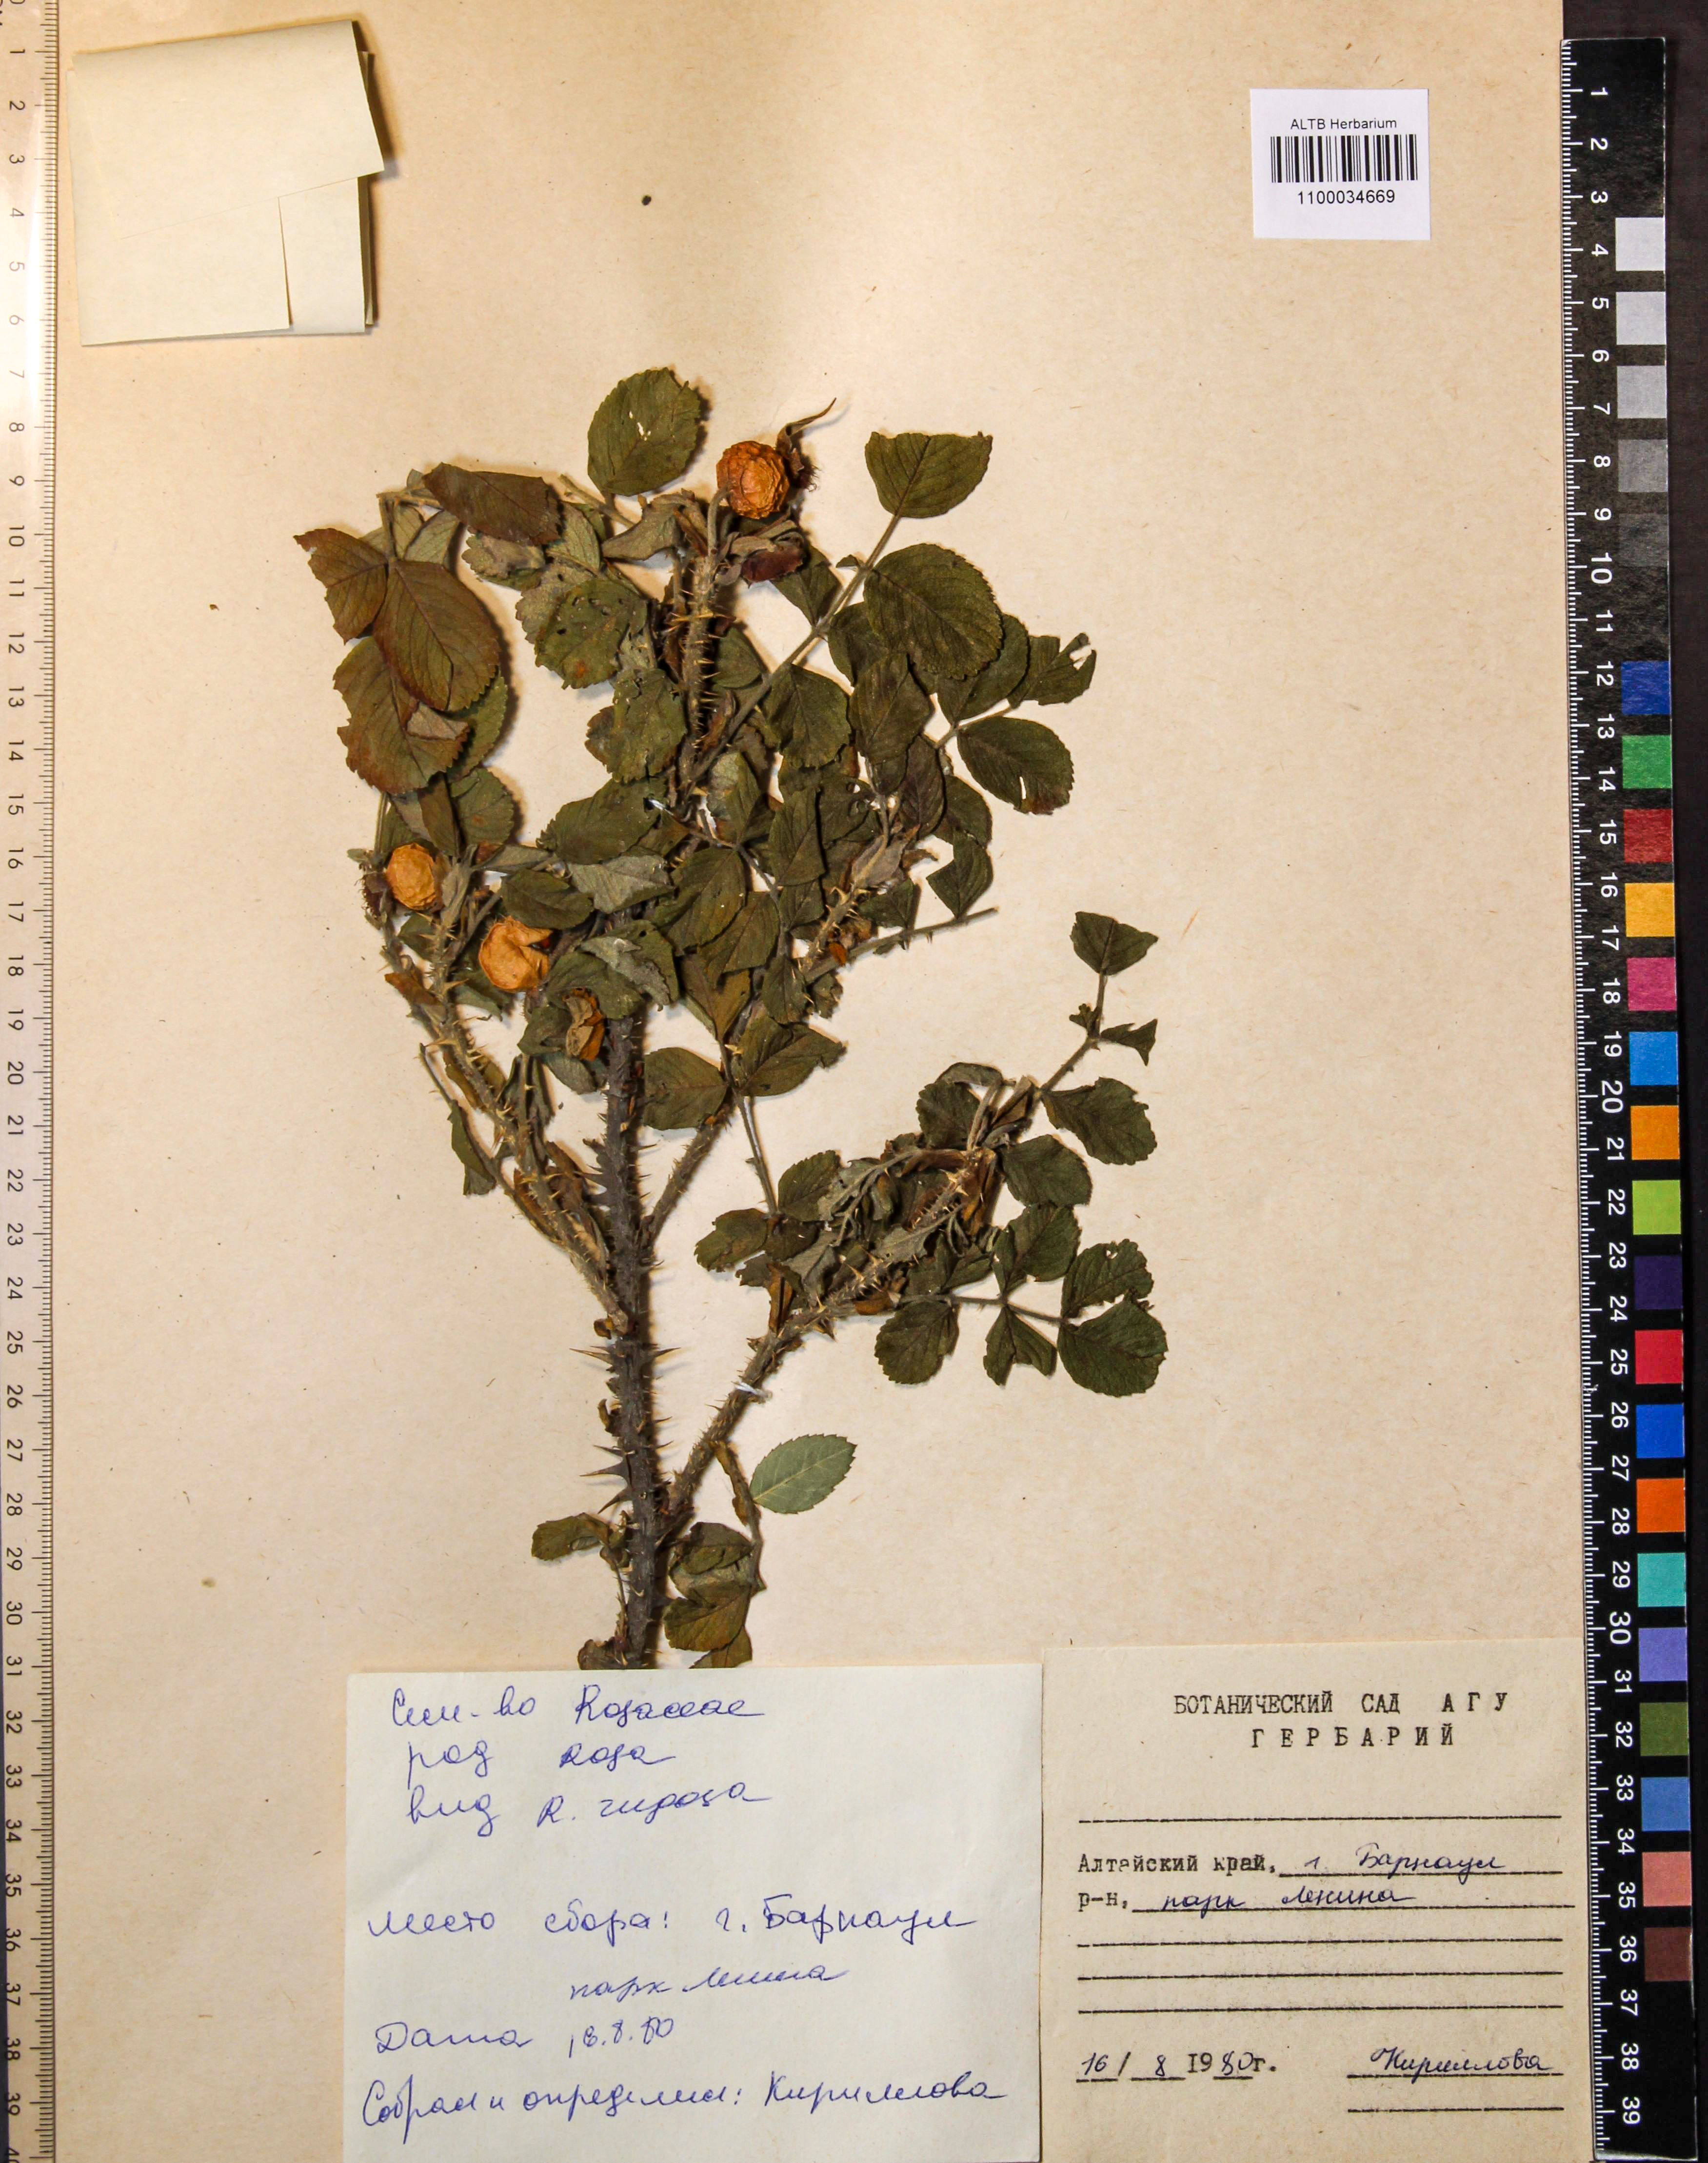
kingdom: Plantae
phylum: Tracheophyta
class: Magnoliopsida
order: Rosales
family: Rosaceae
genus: Rosa
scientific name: Rosa rugosa
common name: Japanese rose
